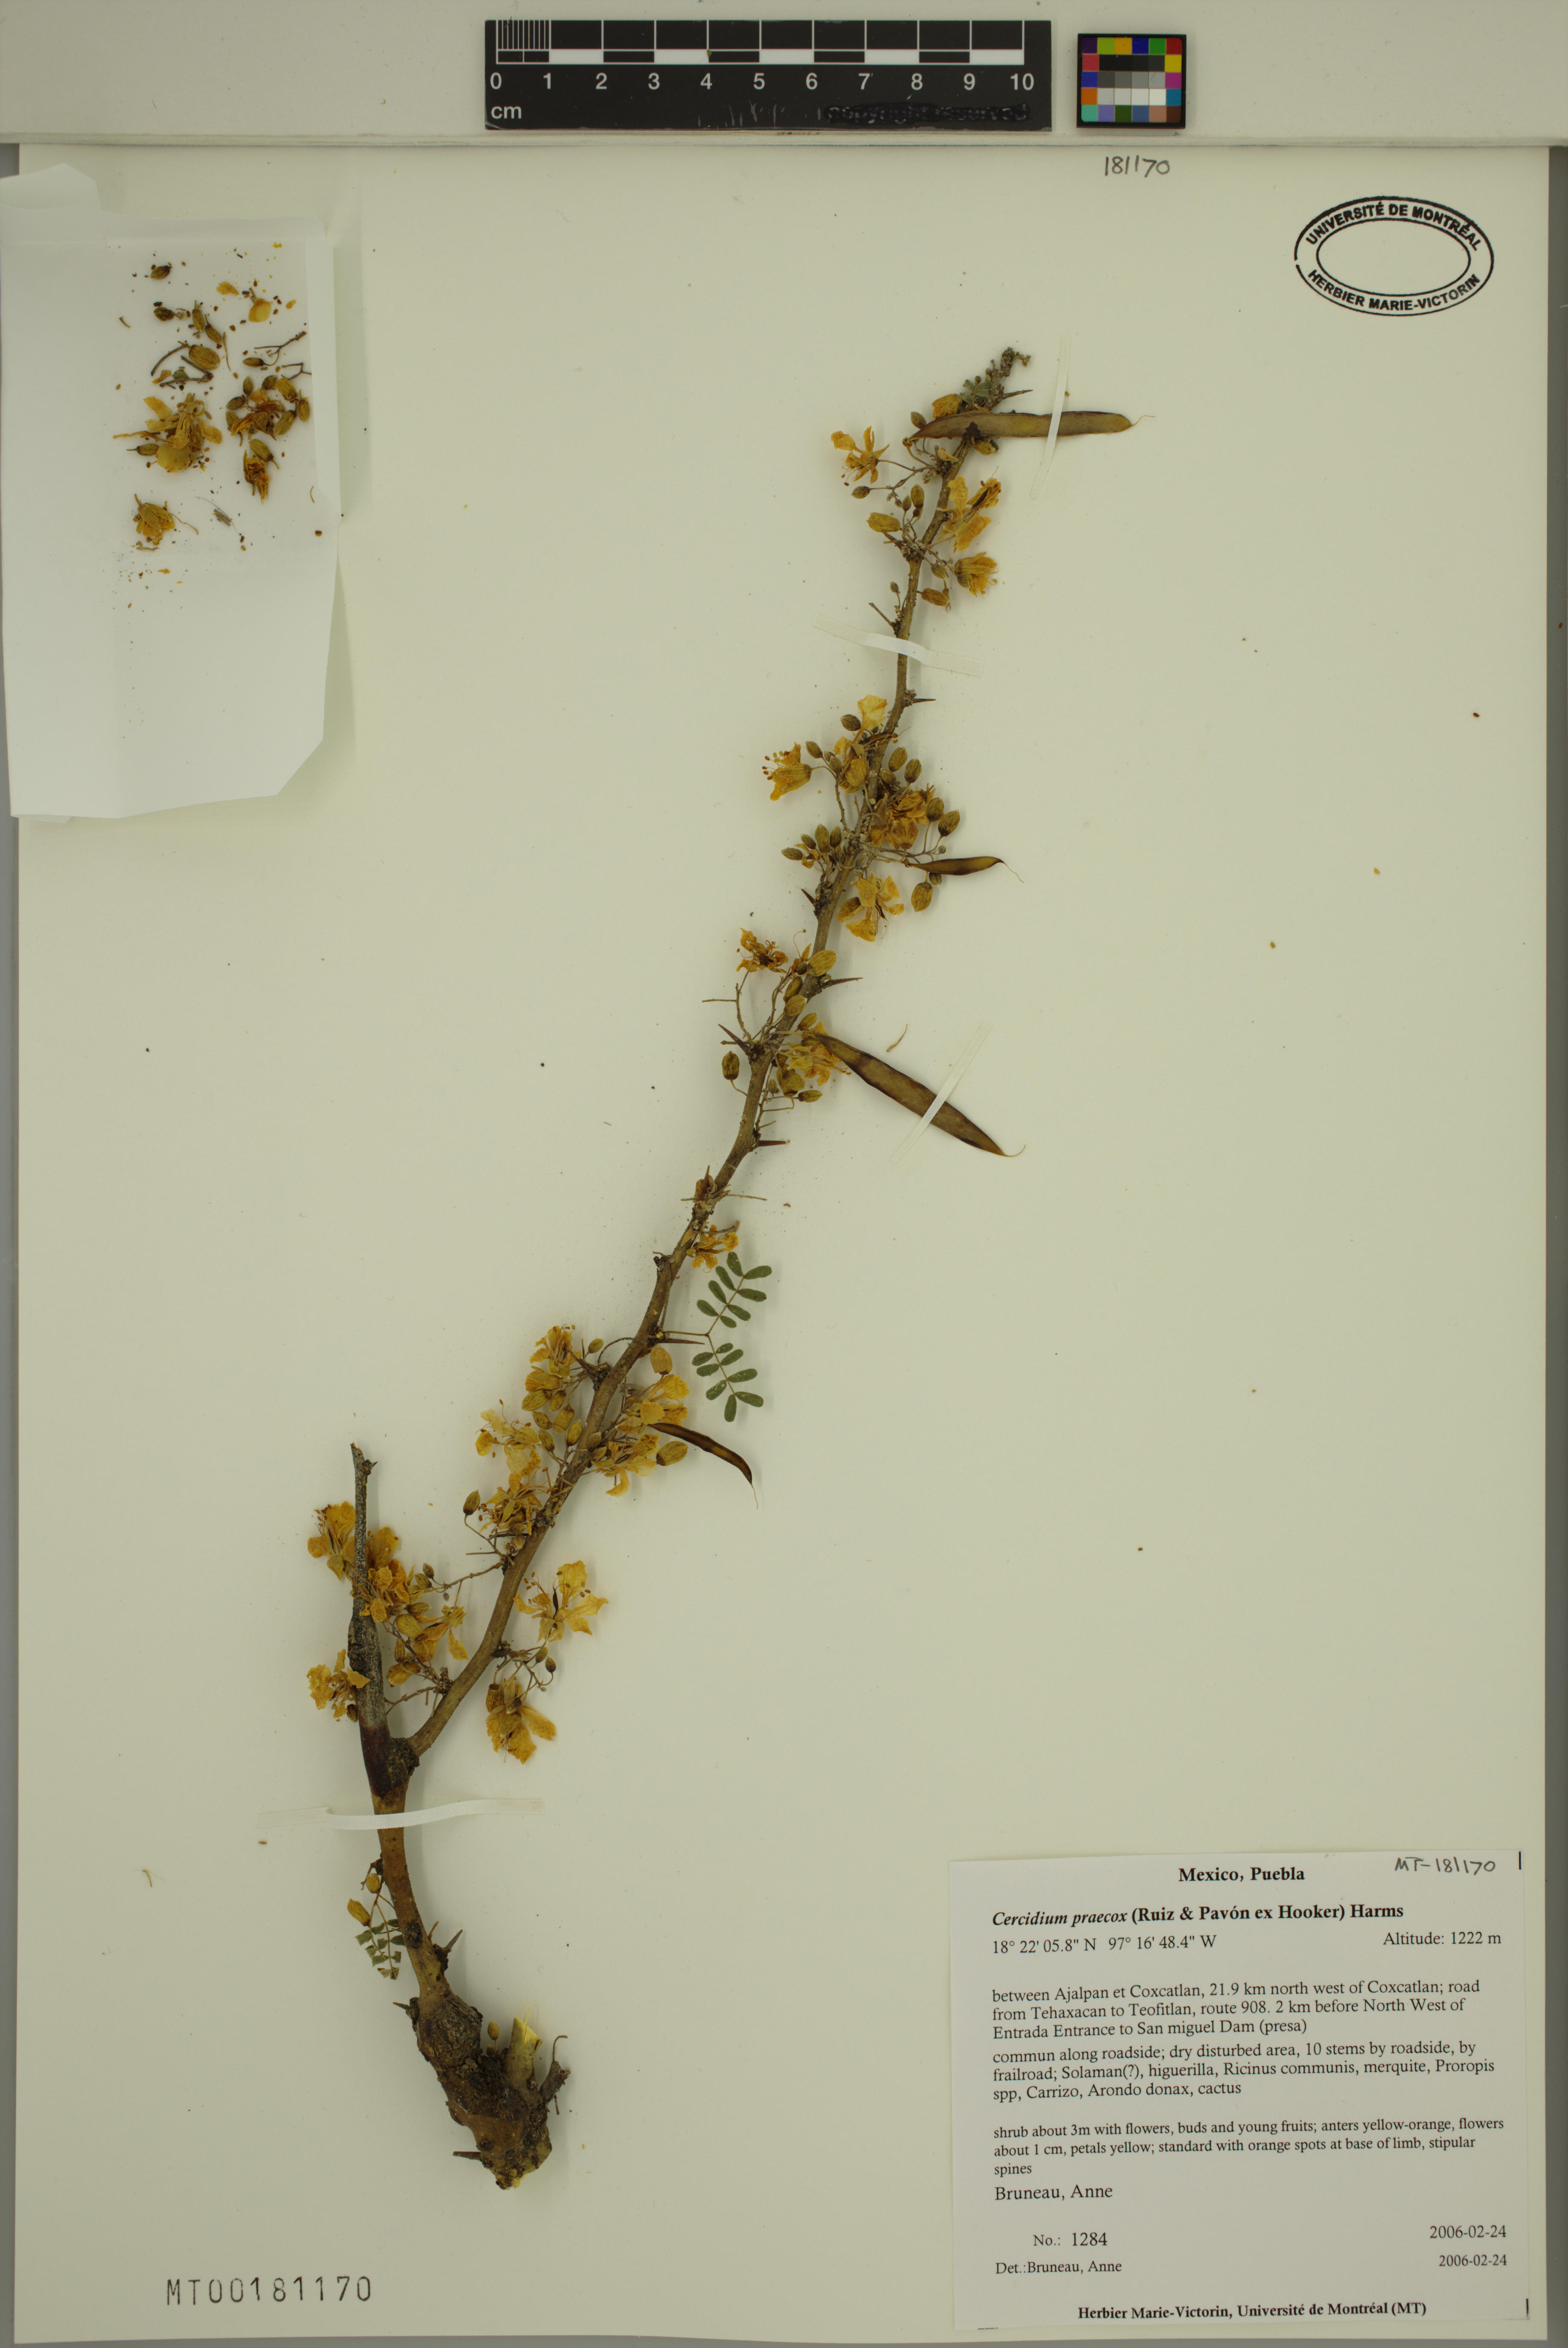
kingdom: Plantae
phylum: Tracheophyta
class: Magnoliopsida
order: Fabales
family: Fabaceae
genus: Parkinsonia
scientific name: Parkinsonia praecox
